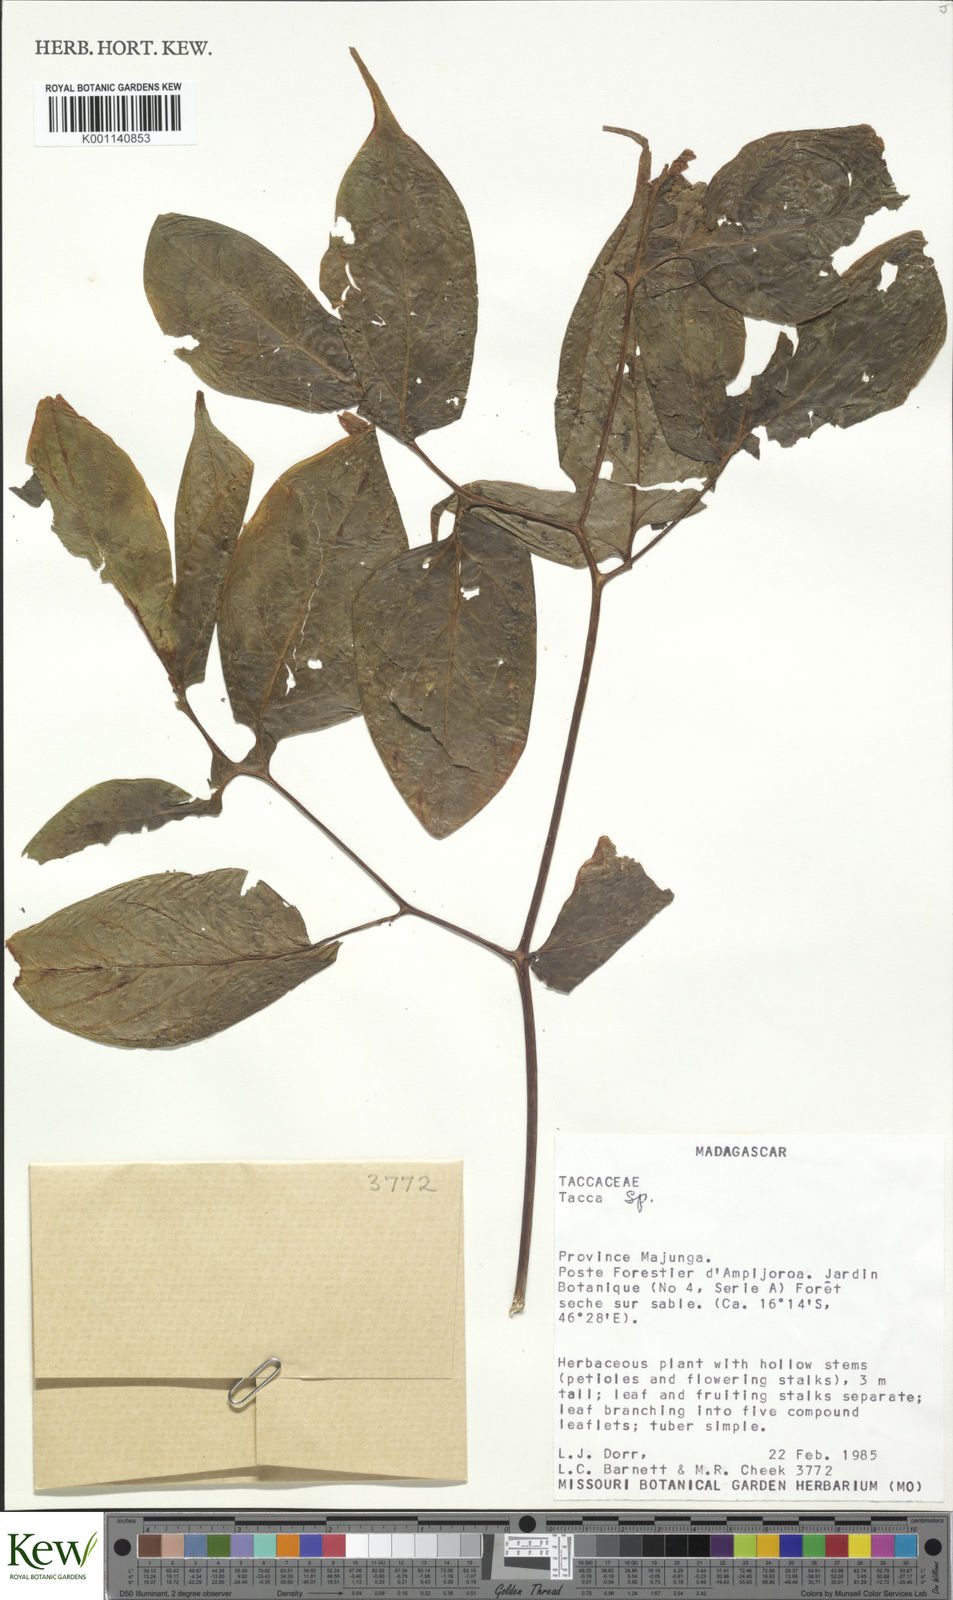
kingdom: Plantae
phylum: Tracheophyta
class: Liliopsida
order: Dioscoreales
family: Dioscoreaceae
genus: Tacca
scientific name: Tacca
